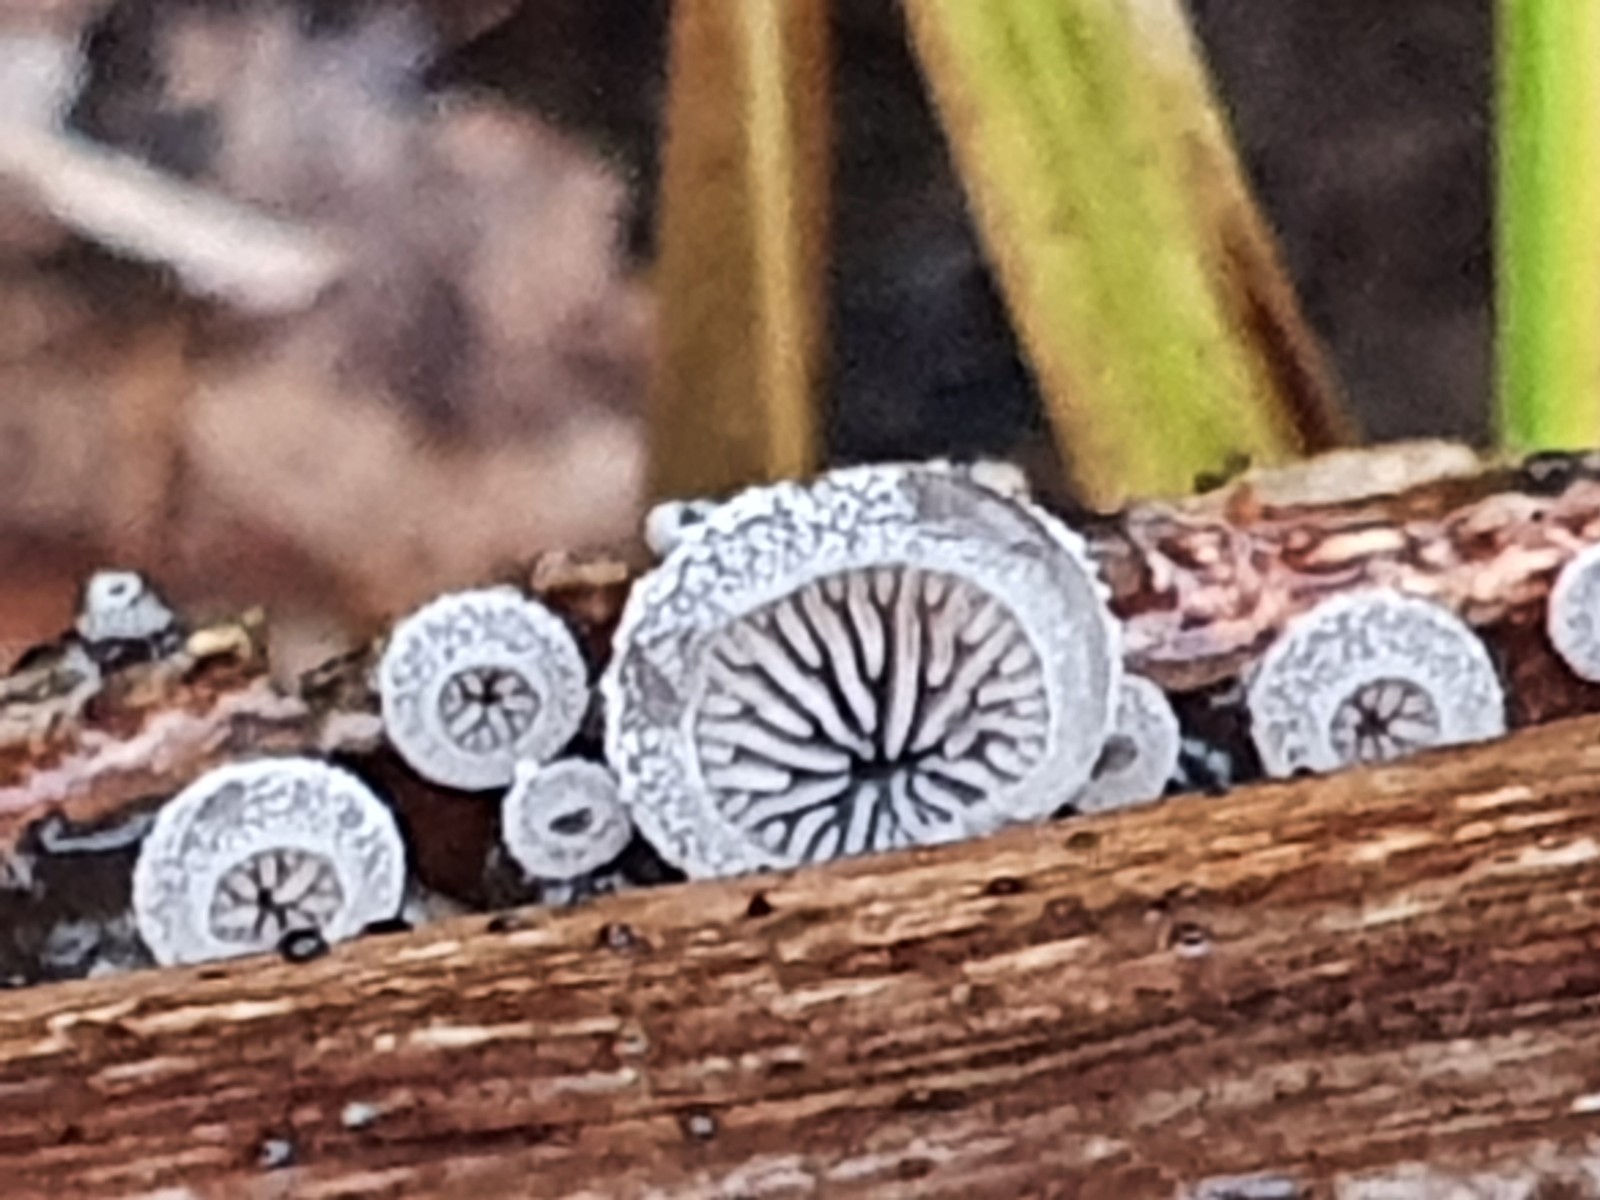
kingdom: Fungi
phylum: Basidiomycota
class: Agaricomycetes
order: Agaricales
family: Pleurotaceae
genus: Resupinatus
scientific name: Resupinatus trichotis
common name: mørkfiltet barkhat
